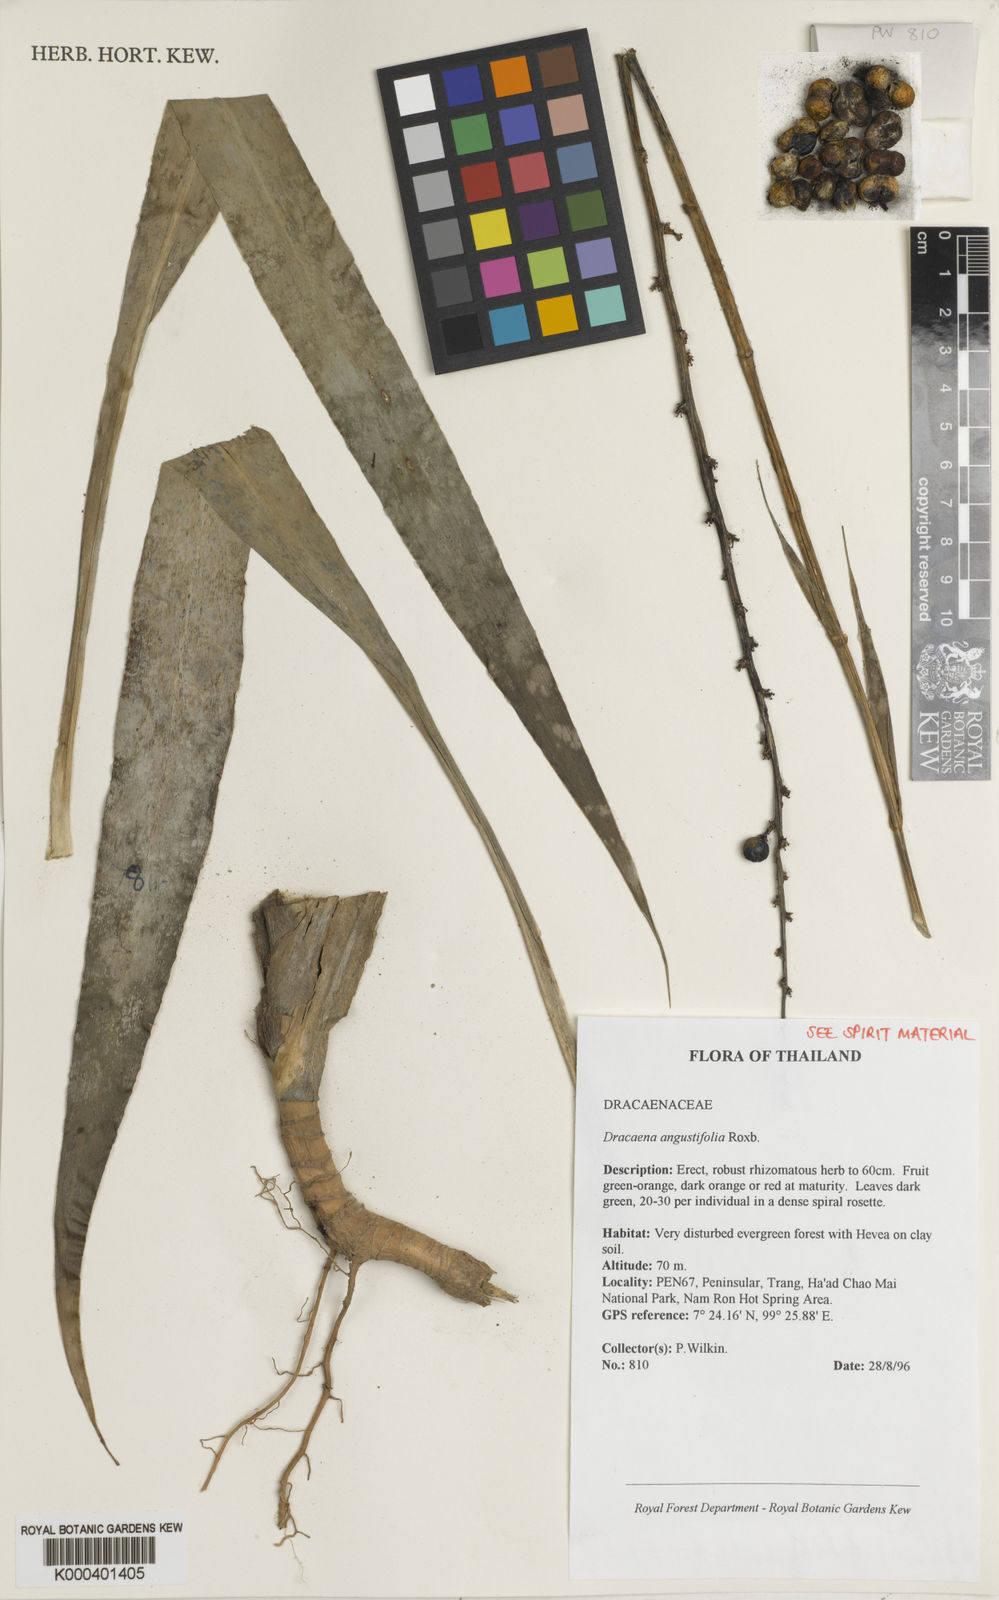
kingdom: Plantae
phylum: Tracheophyta
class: Liliopsida
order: Asparagales
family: Asparagaceae
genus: Dracaena
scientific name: Dracaena angustifolia
